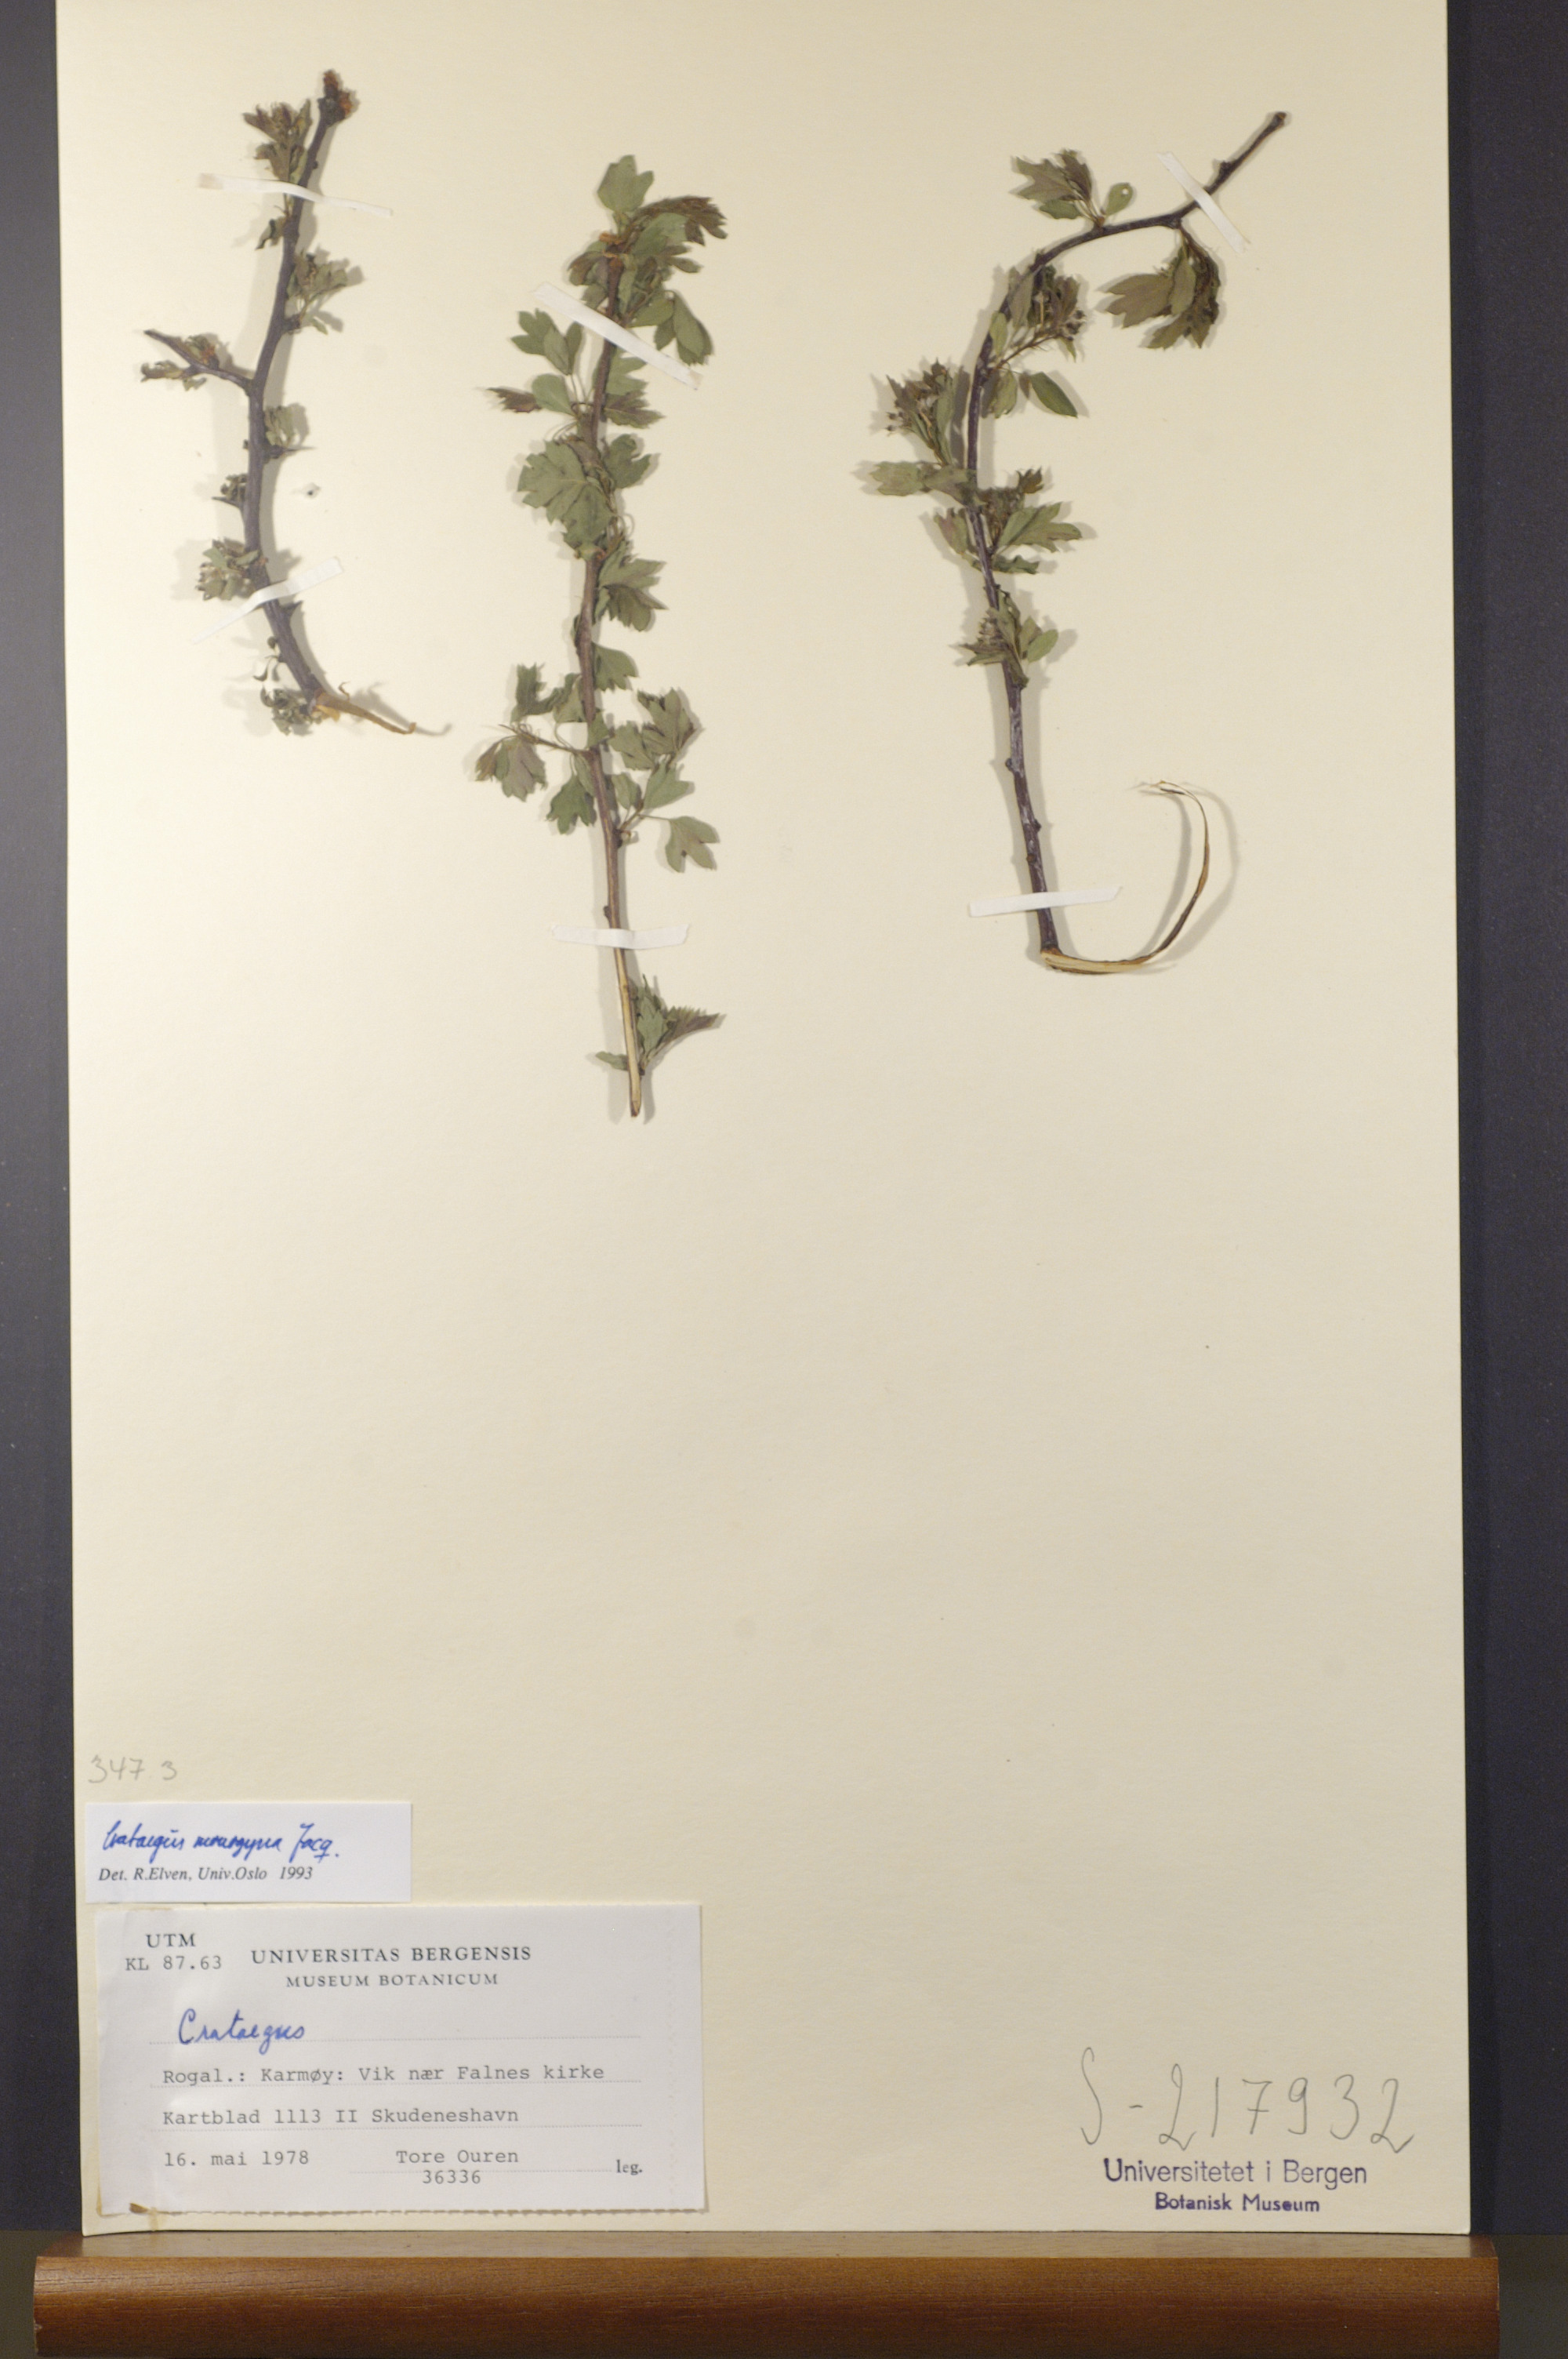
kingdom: Plantae
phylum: Tracheophyta
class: Magnoliopsida
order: Rosales
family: Rosaceae
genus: Crataegus
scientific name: Crataegus monogyna
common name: Hawthorn
